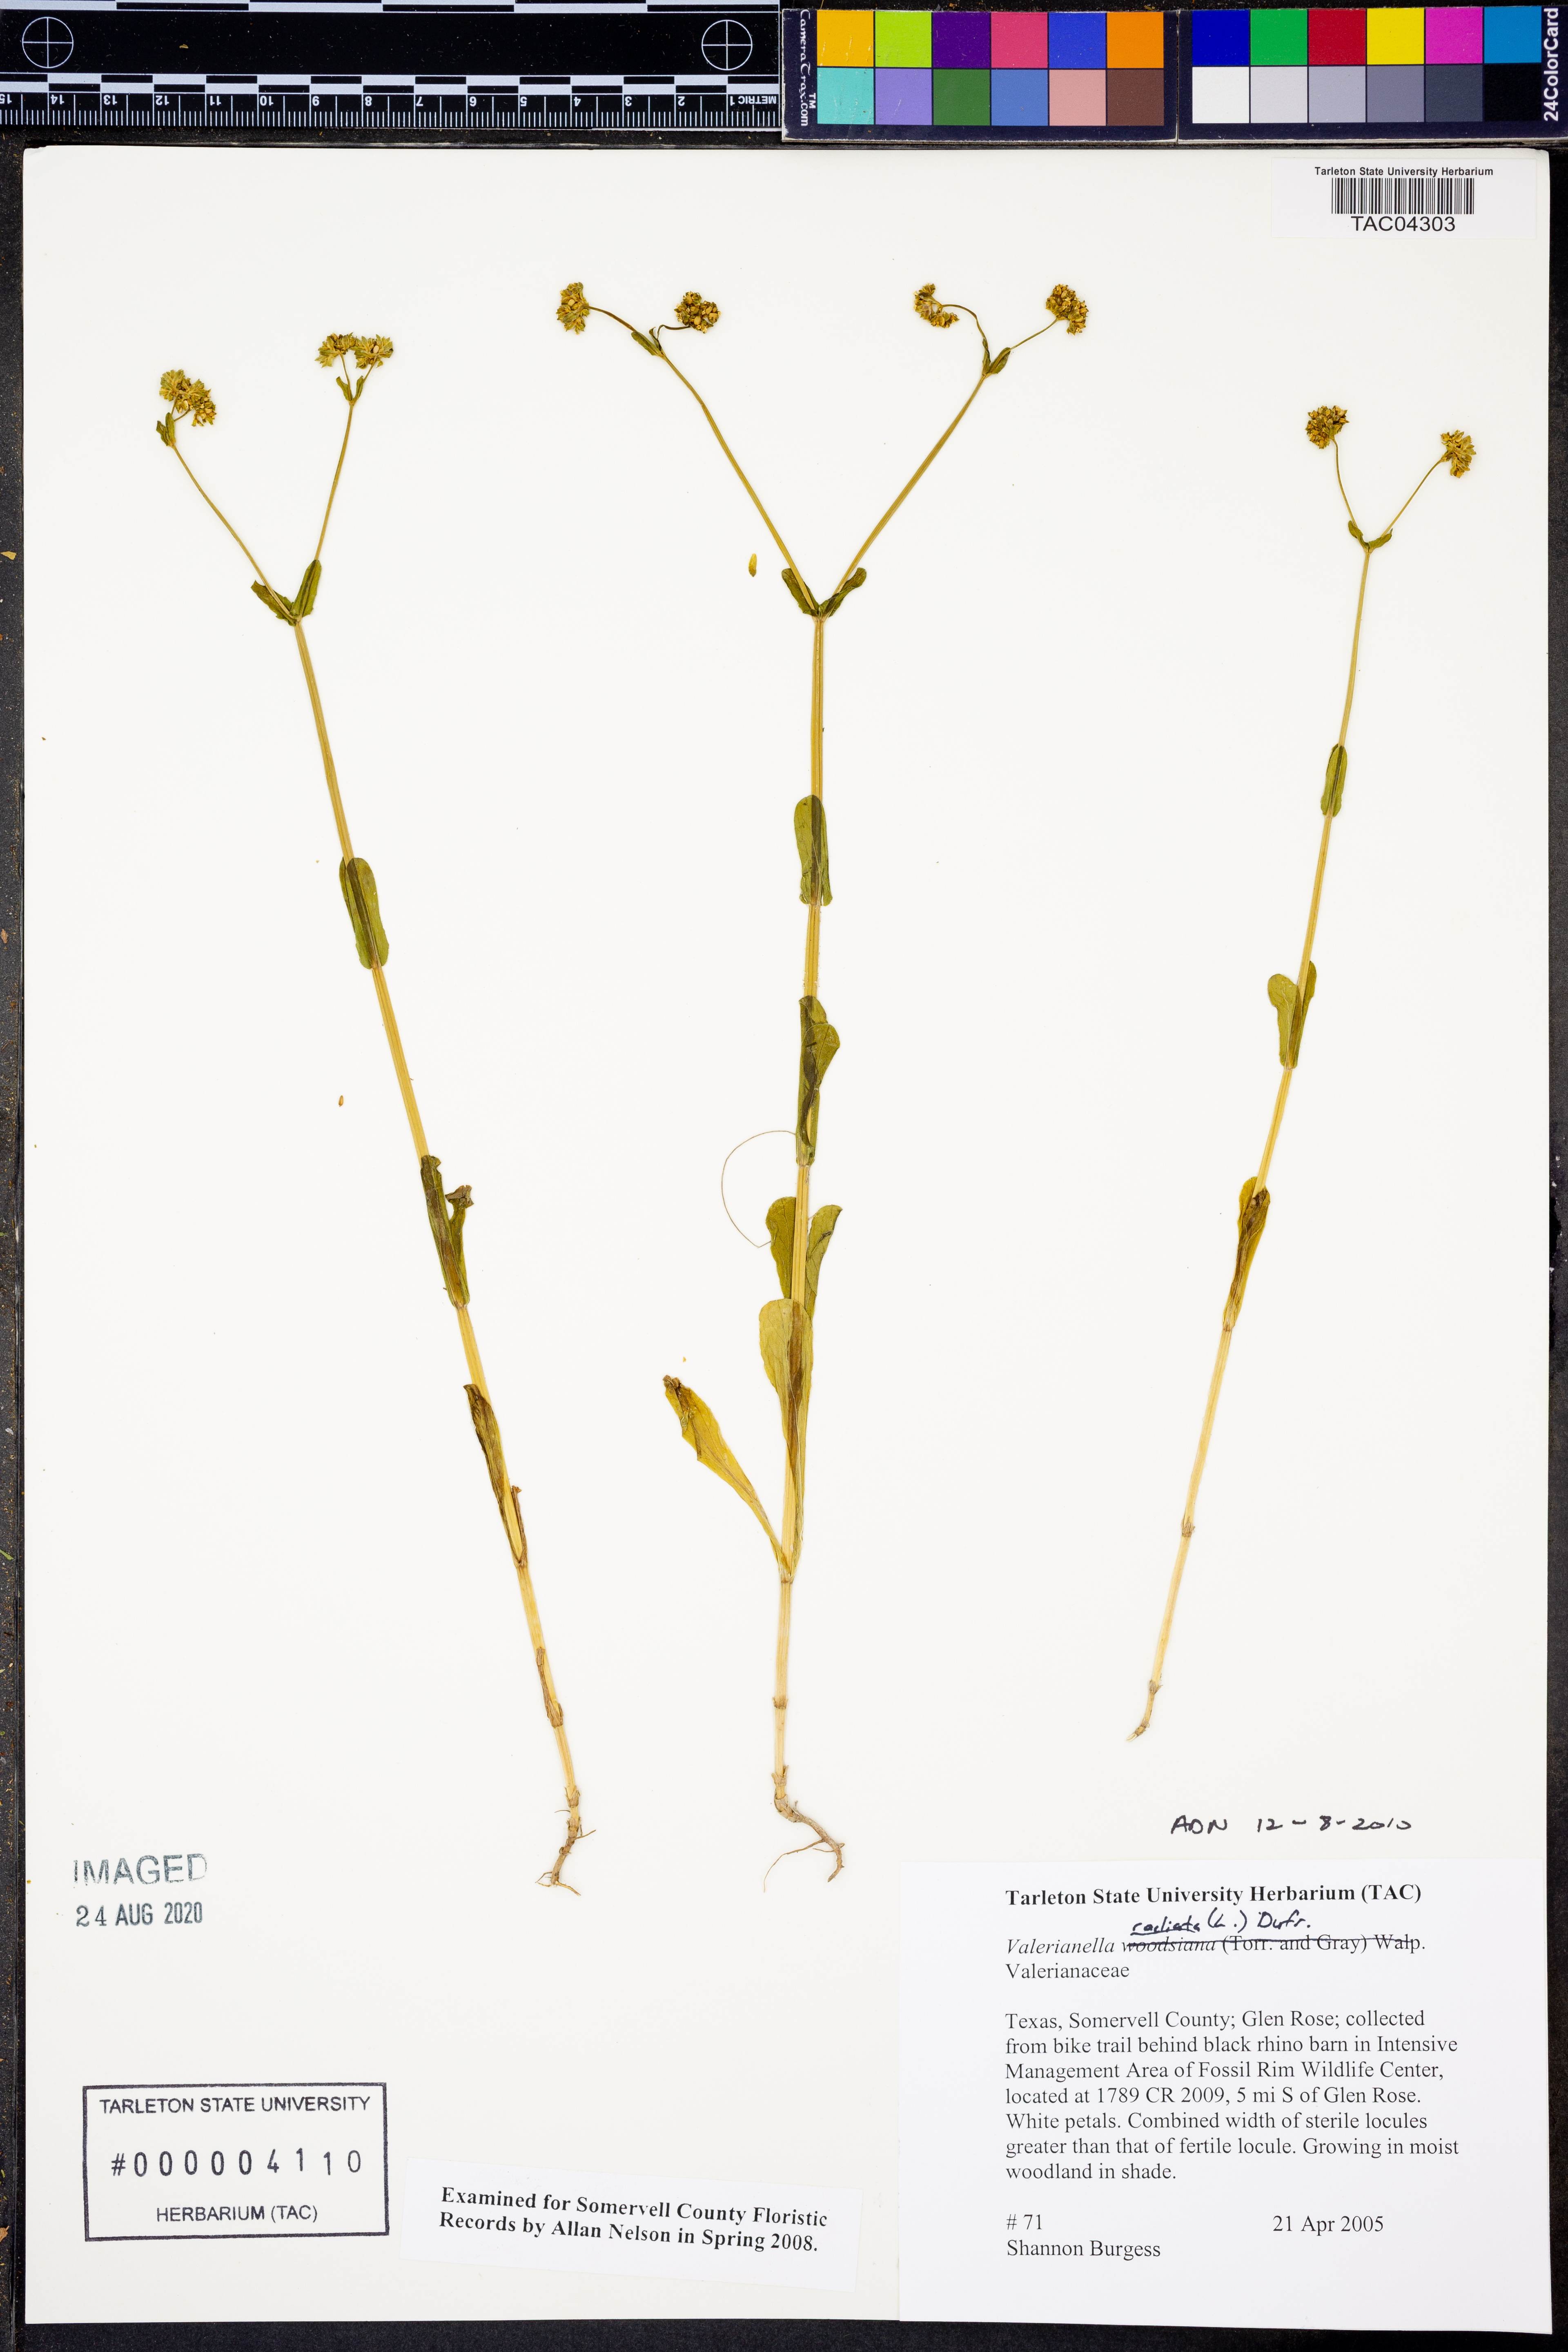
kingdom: Plantae
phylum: Tracheophyta
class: Magnoliopsida
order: Dipsacales
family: Caprifoliaceae
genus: Valerianella
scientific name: Valerianella radiata
